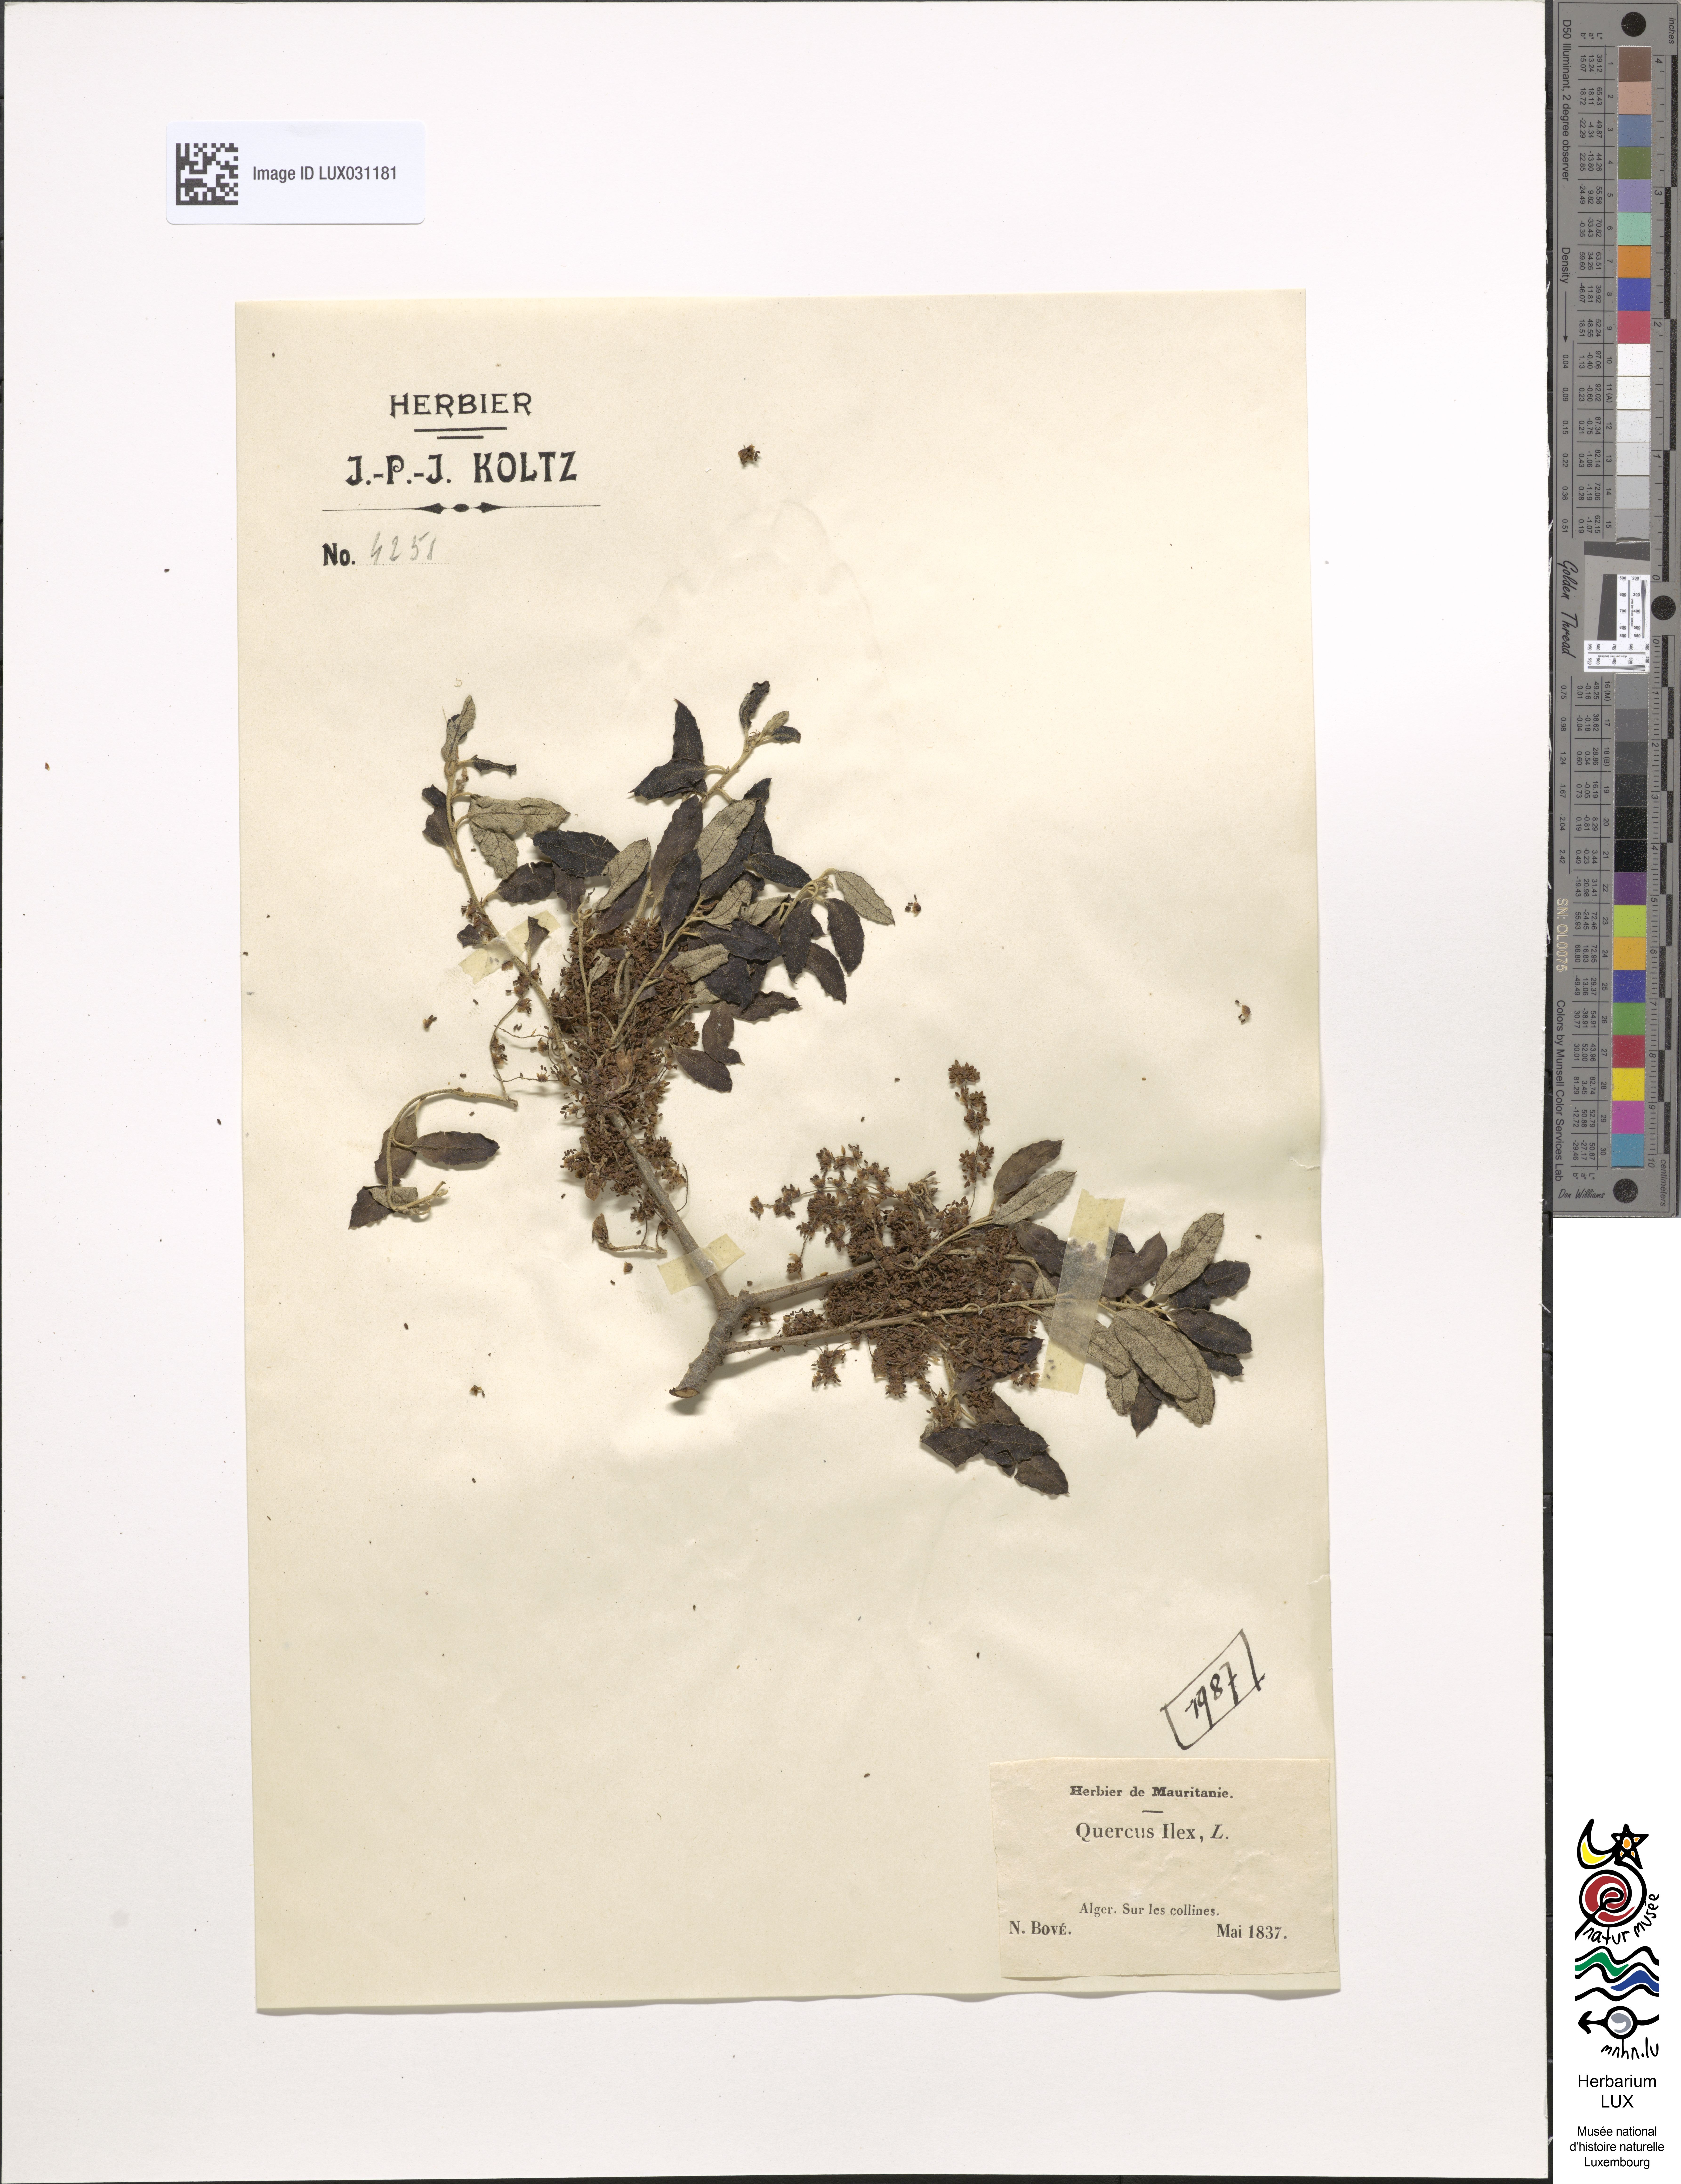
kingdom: Plantae
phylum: Tracheophyta
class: Magnoliopsida
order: Fagales
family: Fagaceae
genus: Quercus
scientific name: Quercus ilex
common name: Evergreen oak
